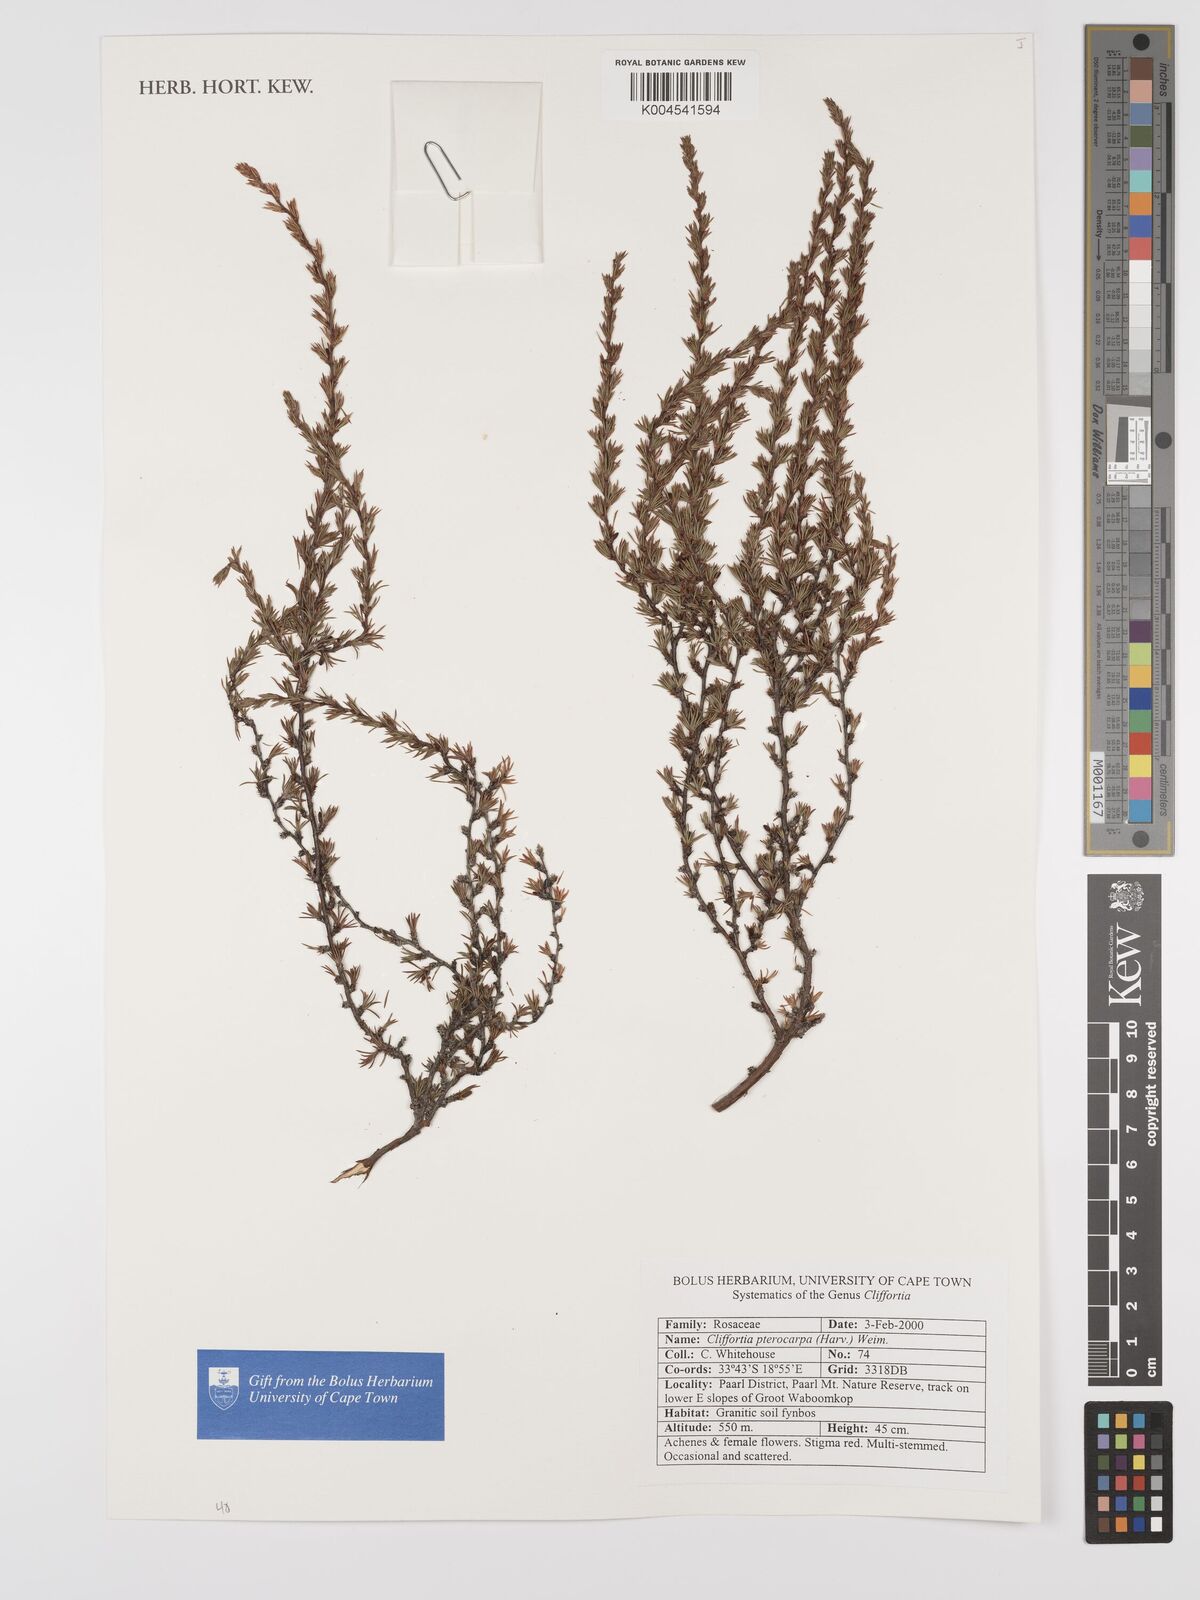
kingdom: Plantae
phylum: Tracheophyta
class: Magnoliopsida
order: Rosales
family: Rosaceae
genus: Cliffortia
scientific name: Cliffortia pterocarpa
